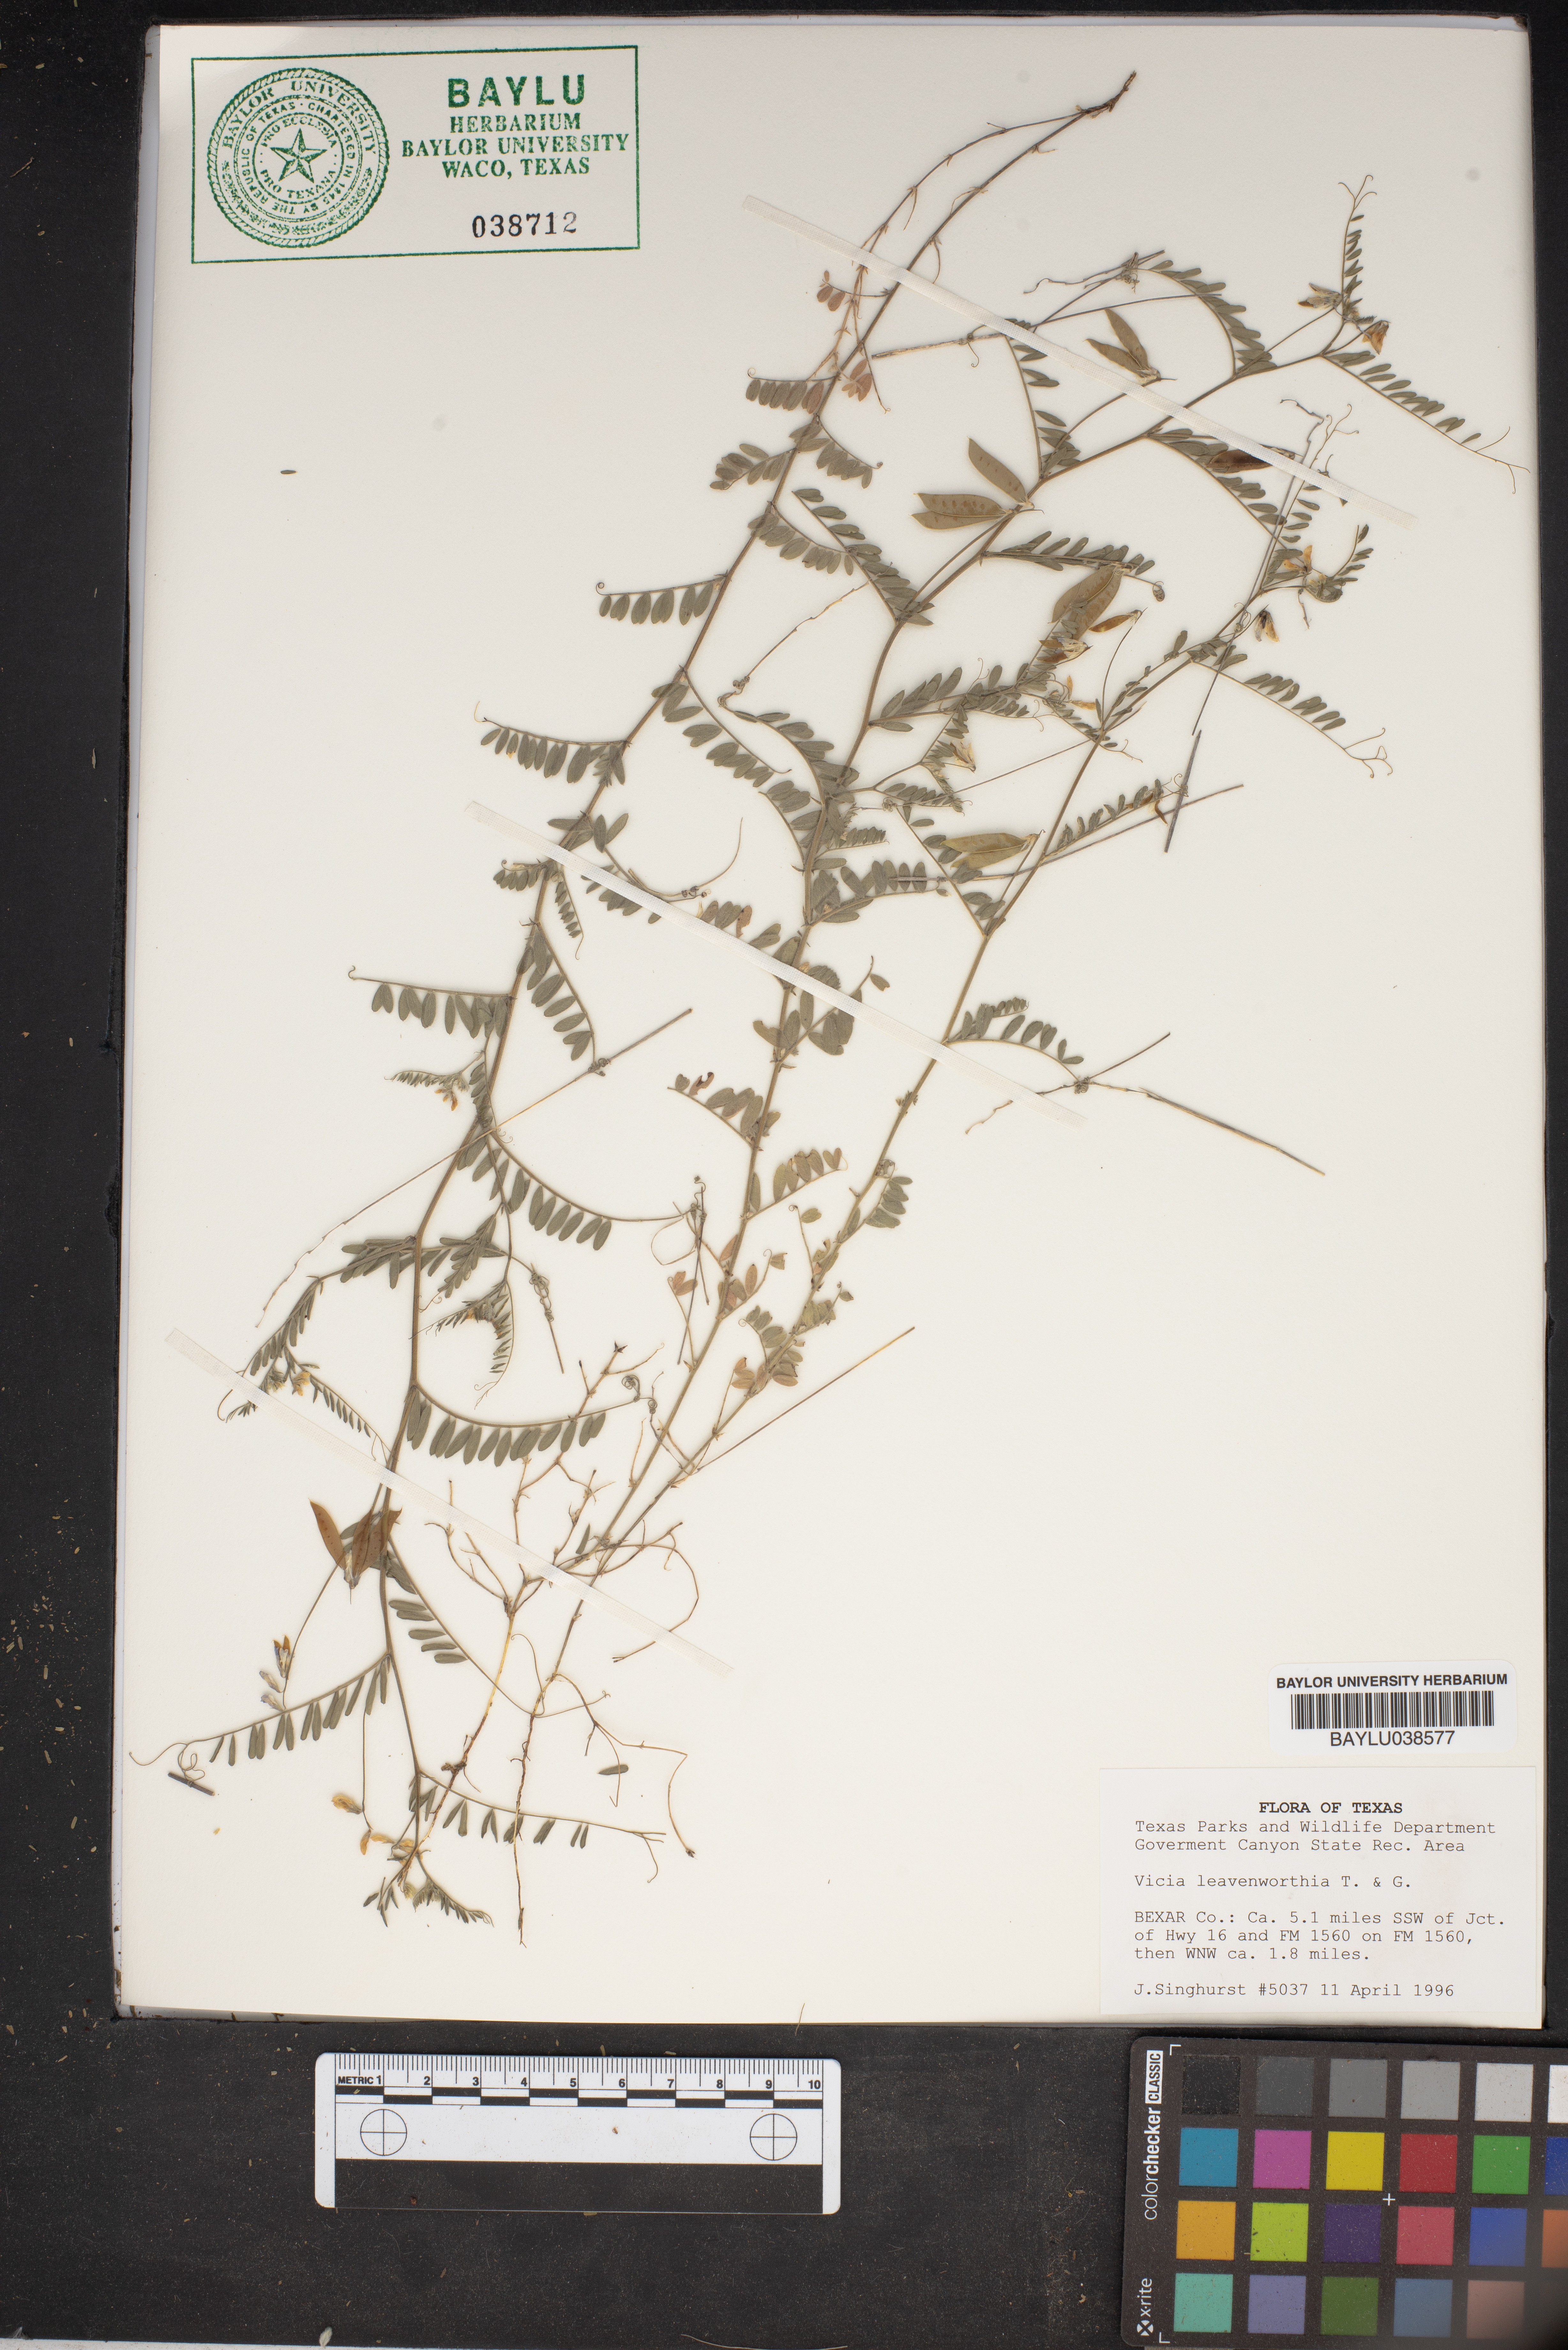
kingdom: Plantae
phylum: Tracheophyta
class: Magnoliopsida
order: Fabales
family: Fabaceae
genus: Vicia
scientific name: Vicia ludoviciana
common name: Louisiana vetch
